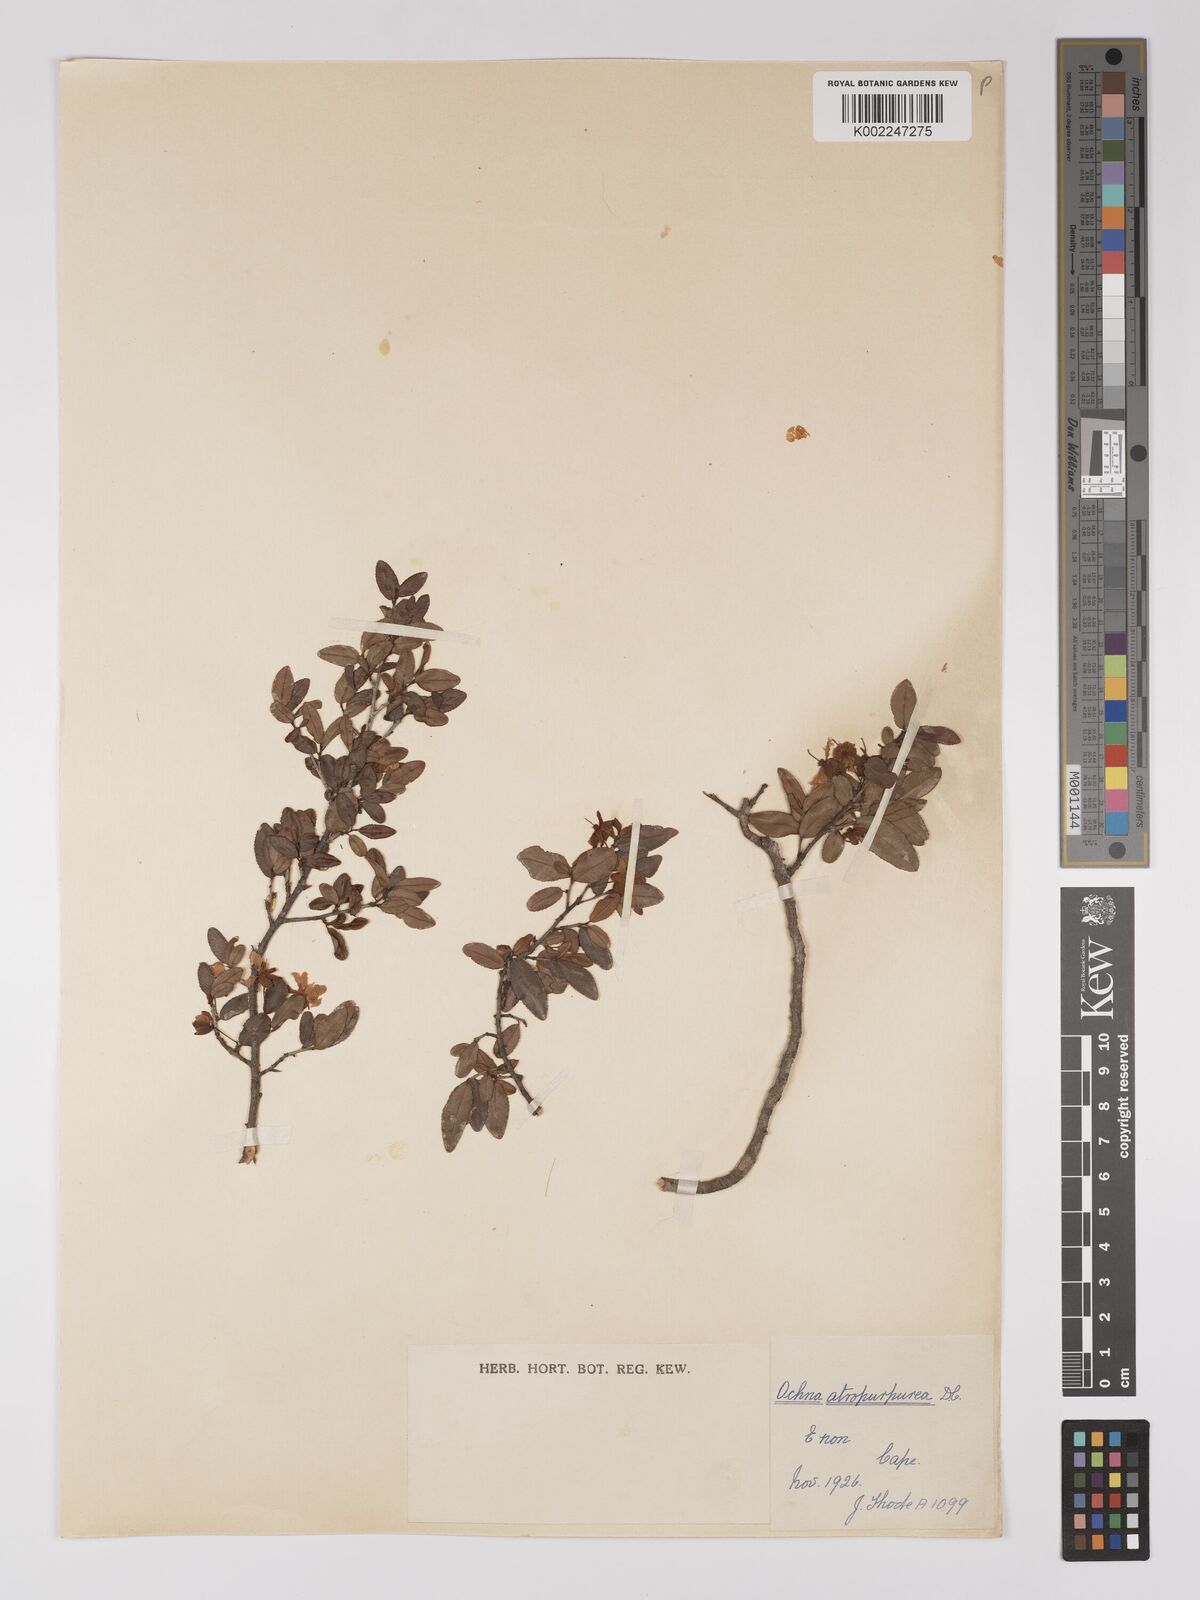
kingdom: Plantae
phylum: Tracheophyta
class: Magnoliopsida
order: Malpighiales
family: Ochnaceae
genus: Ochna
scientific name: Ochna gamostigmata
